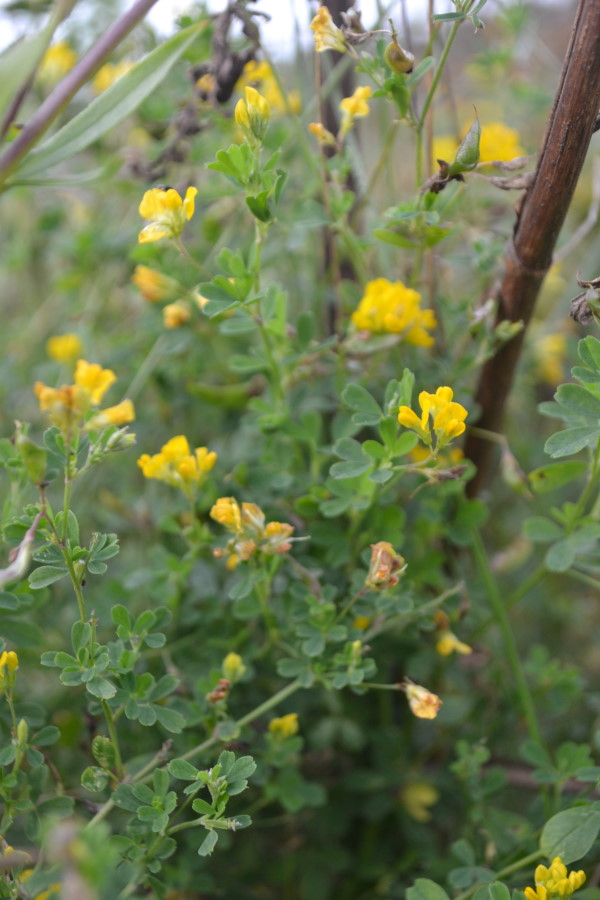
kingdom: Plantae
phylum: Tracheophyta
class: Magnoliopsida
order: Fabales
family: Fabaceae
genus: Medicago
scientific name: Medicago falcata
